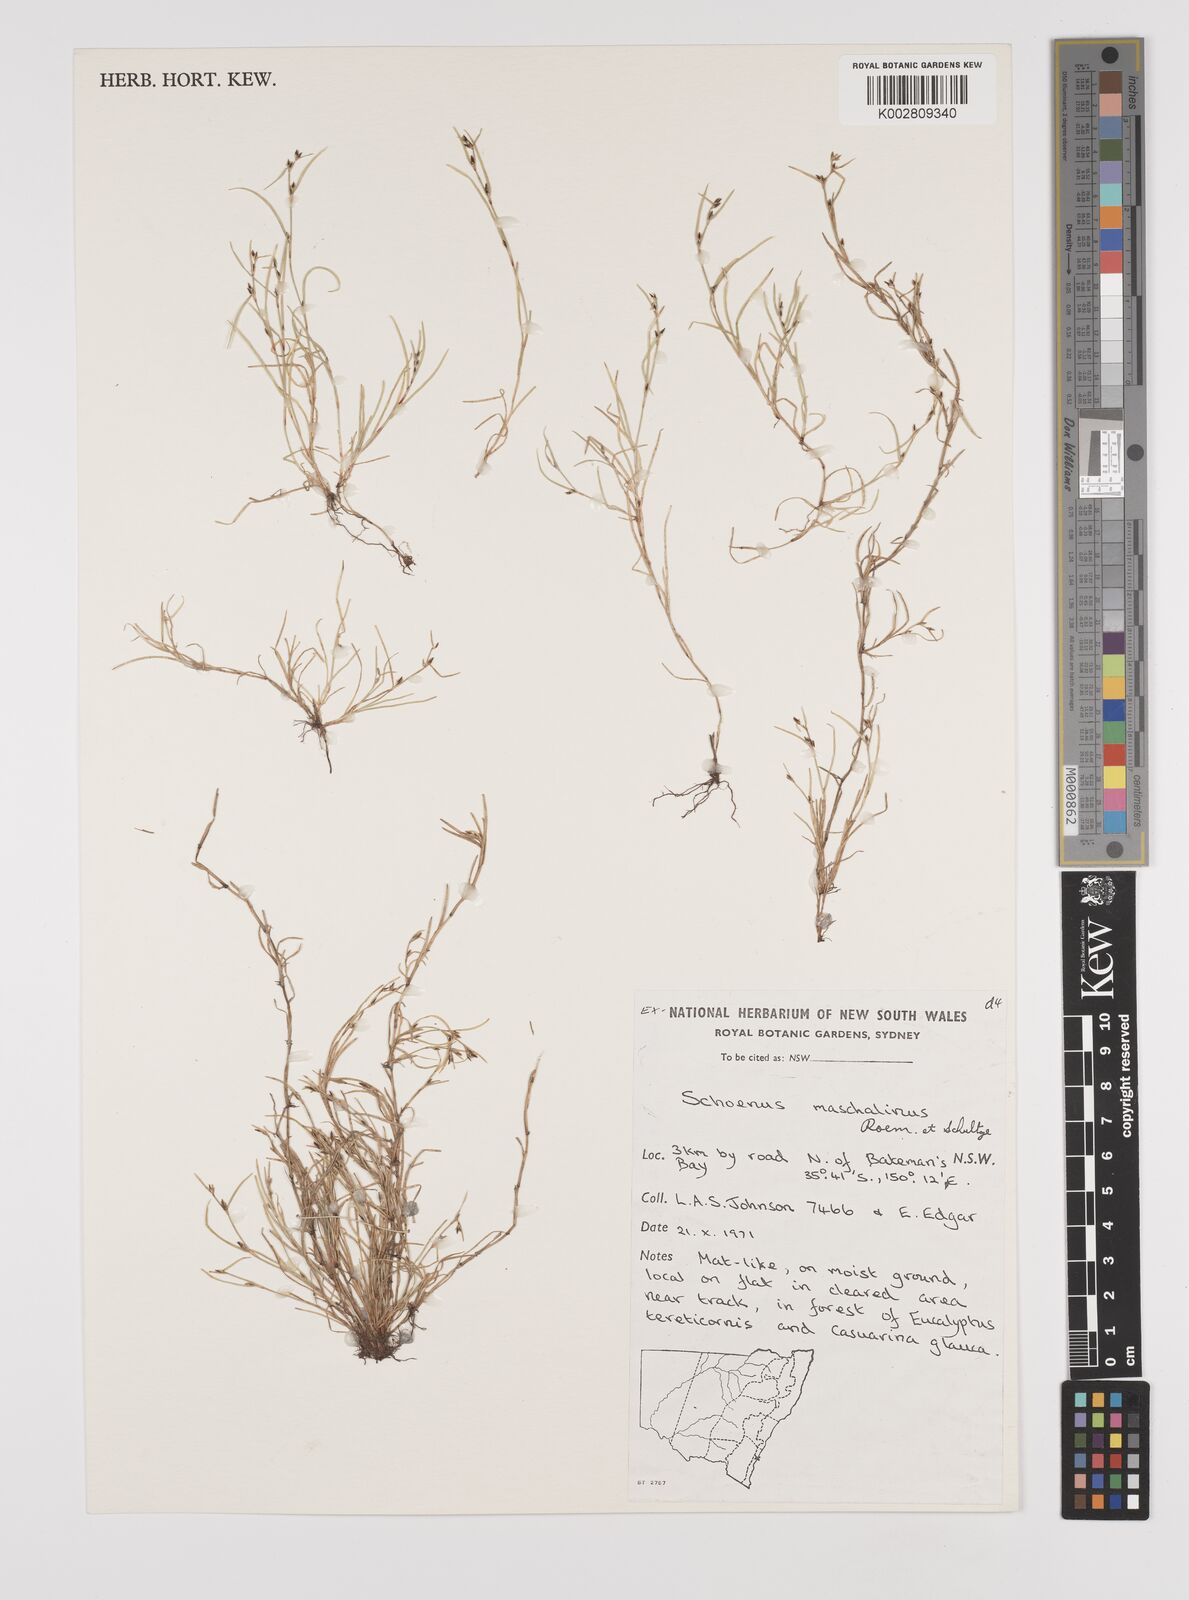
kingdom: Plantae
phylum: Tracheophyta
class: Liliopsida
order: Poales
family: Cyperaceae
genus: Schoenus
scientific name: Schoenus maschalinus
